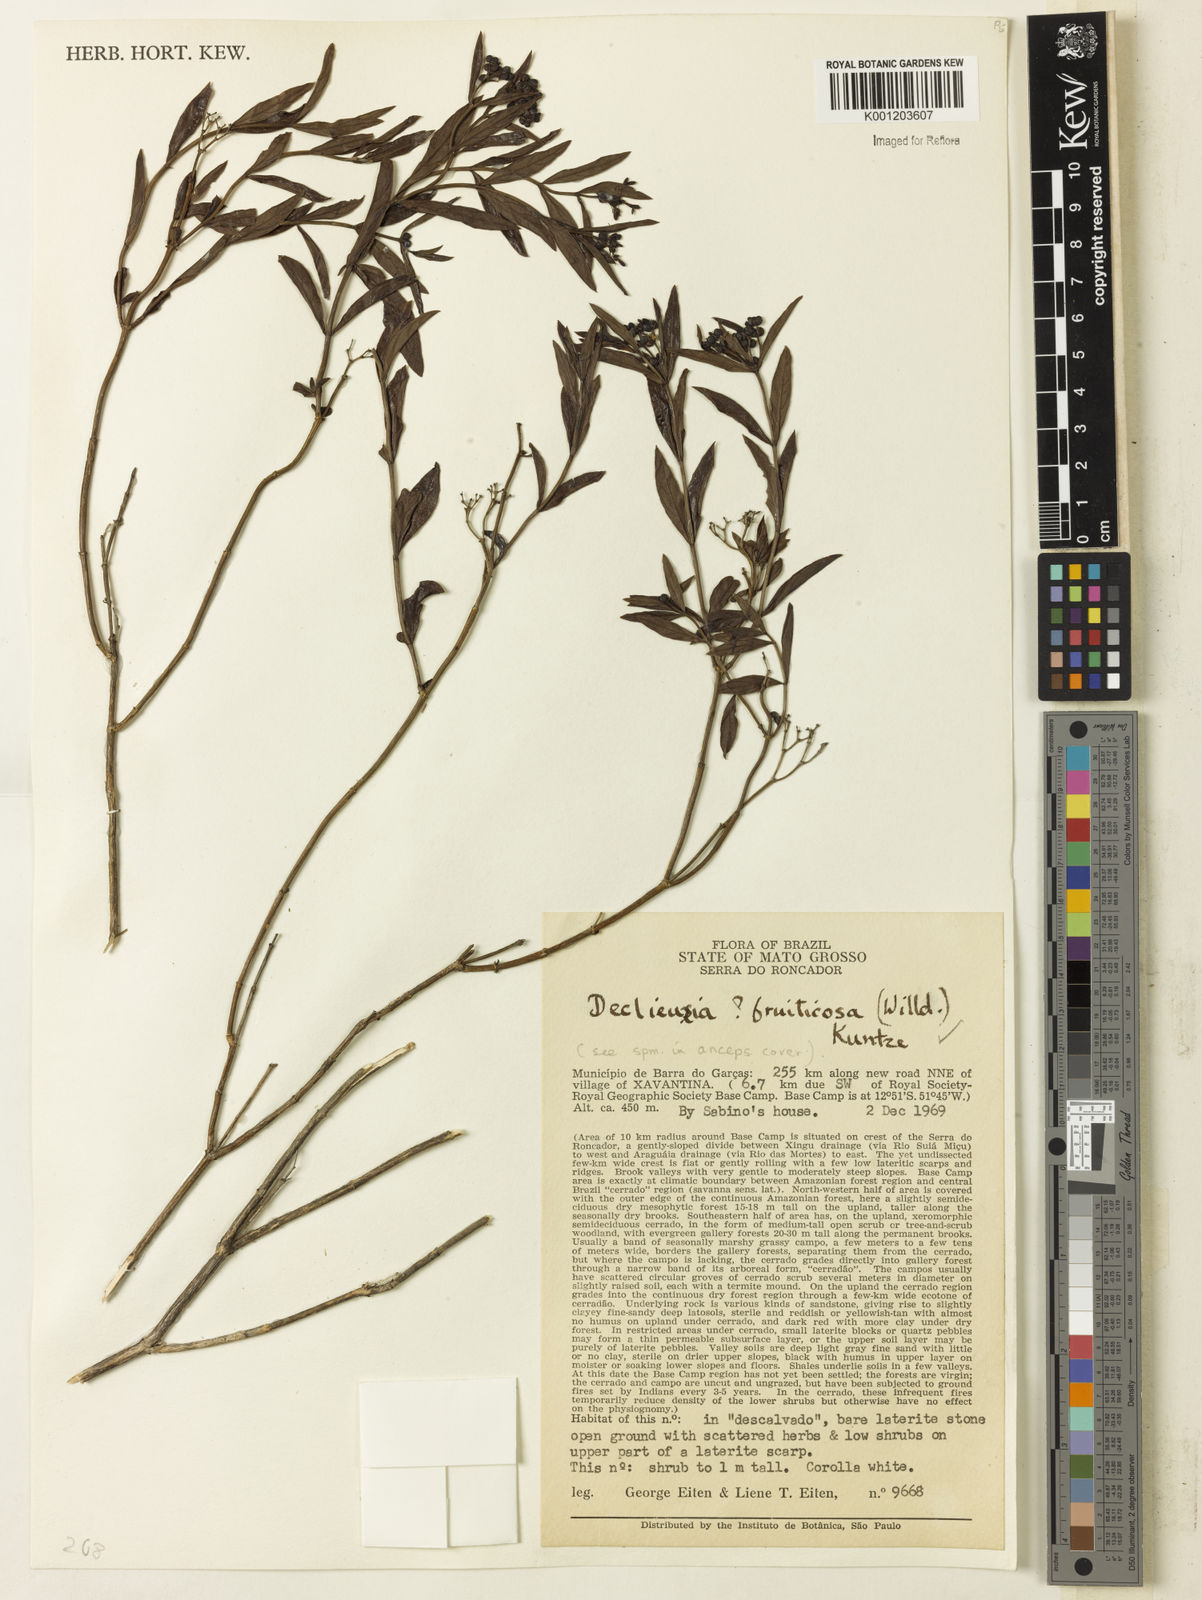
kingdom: Plantae
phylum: Tracheophyta
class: Magnoliopsida
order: Gentianales
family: Rubiaceae
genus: Declieuxia
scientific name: Declieuxia fruticosa
